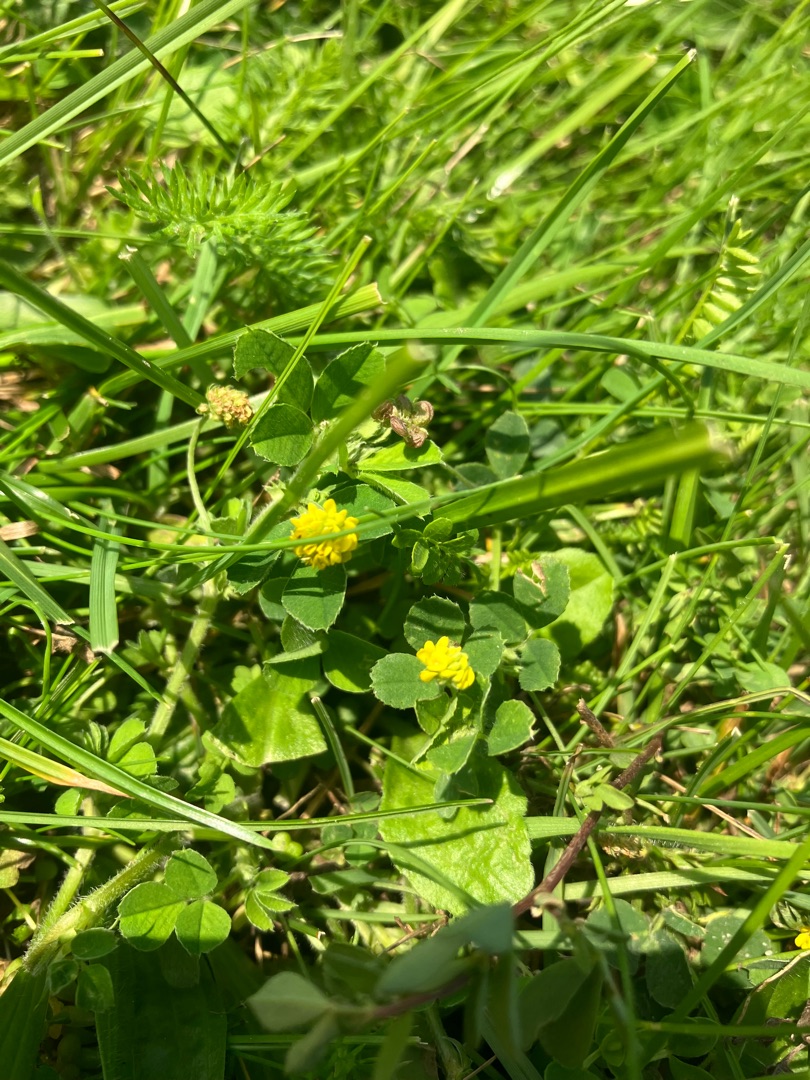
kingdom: Plantae
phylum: Tracheophyta
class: Magnoliopsida
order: Fabales
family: Fabaceae
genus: Medicago
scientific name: Medicago lupulina
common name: Humle-sneglebælg
